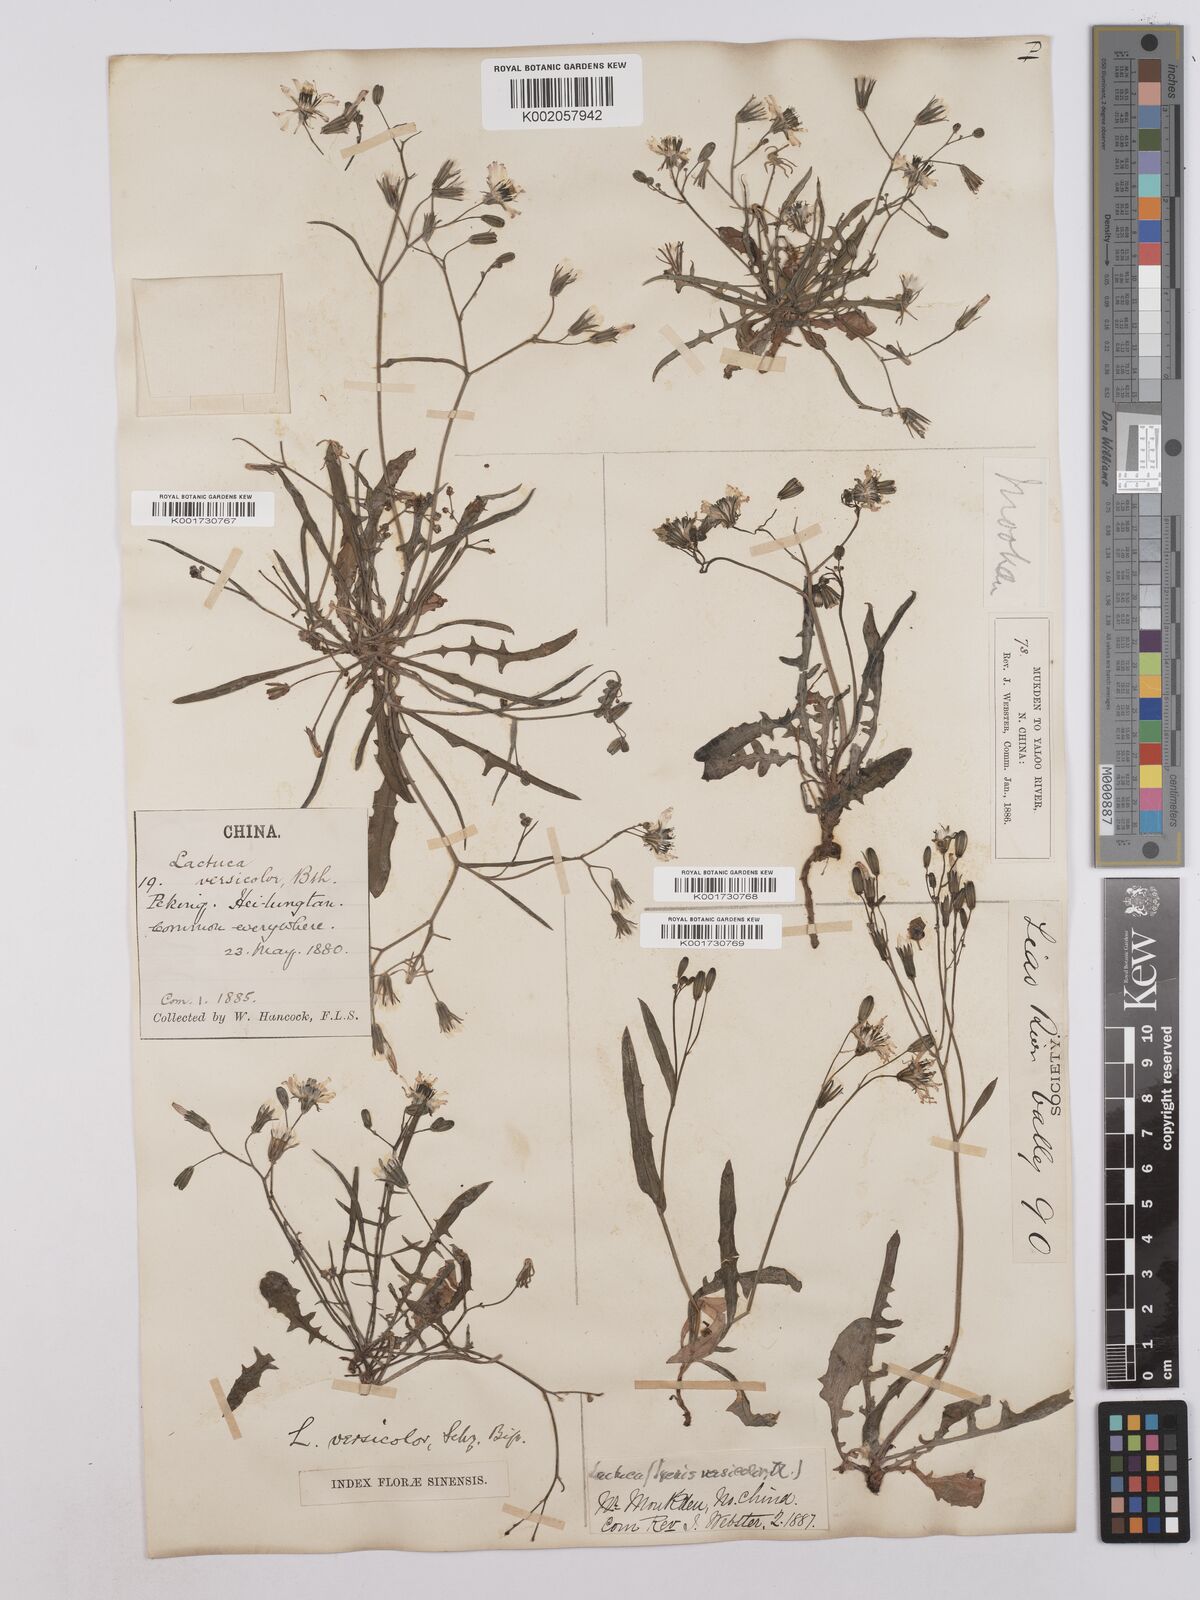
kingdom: Plantae
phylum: Tracheophyta
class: Magnoliopsida
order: Asterales
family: Asteraceae
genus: Ixeris
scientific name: Ixeris chinensis
